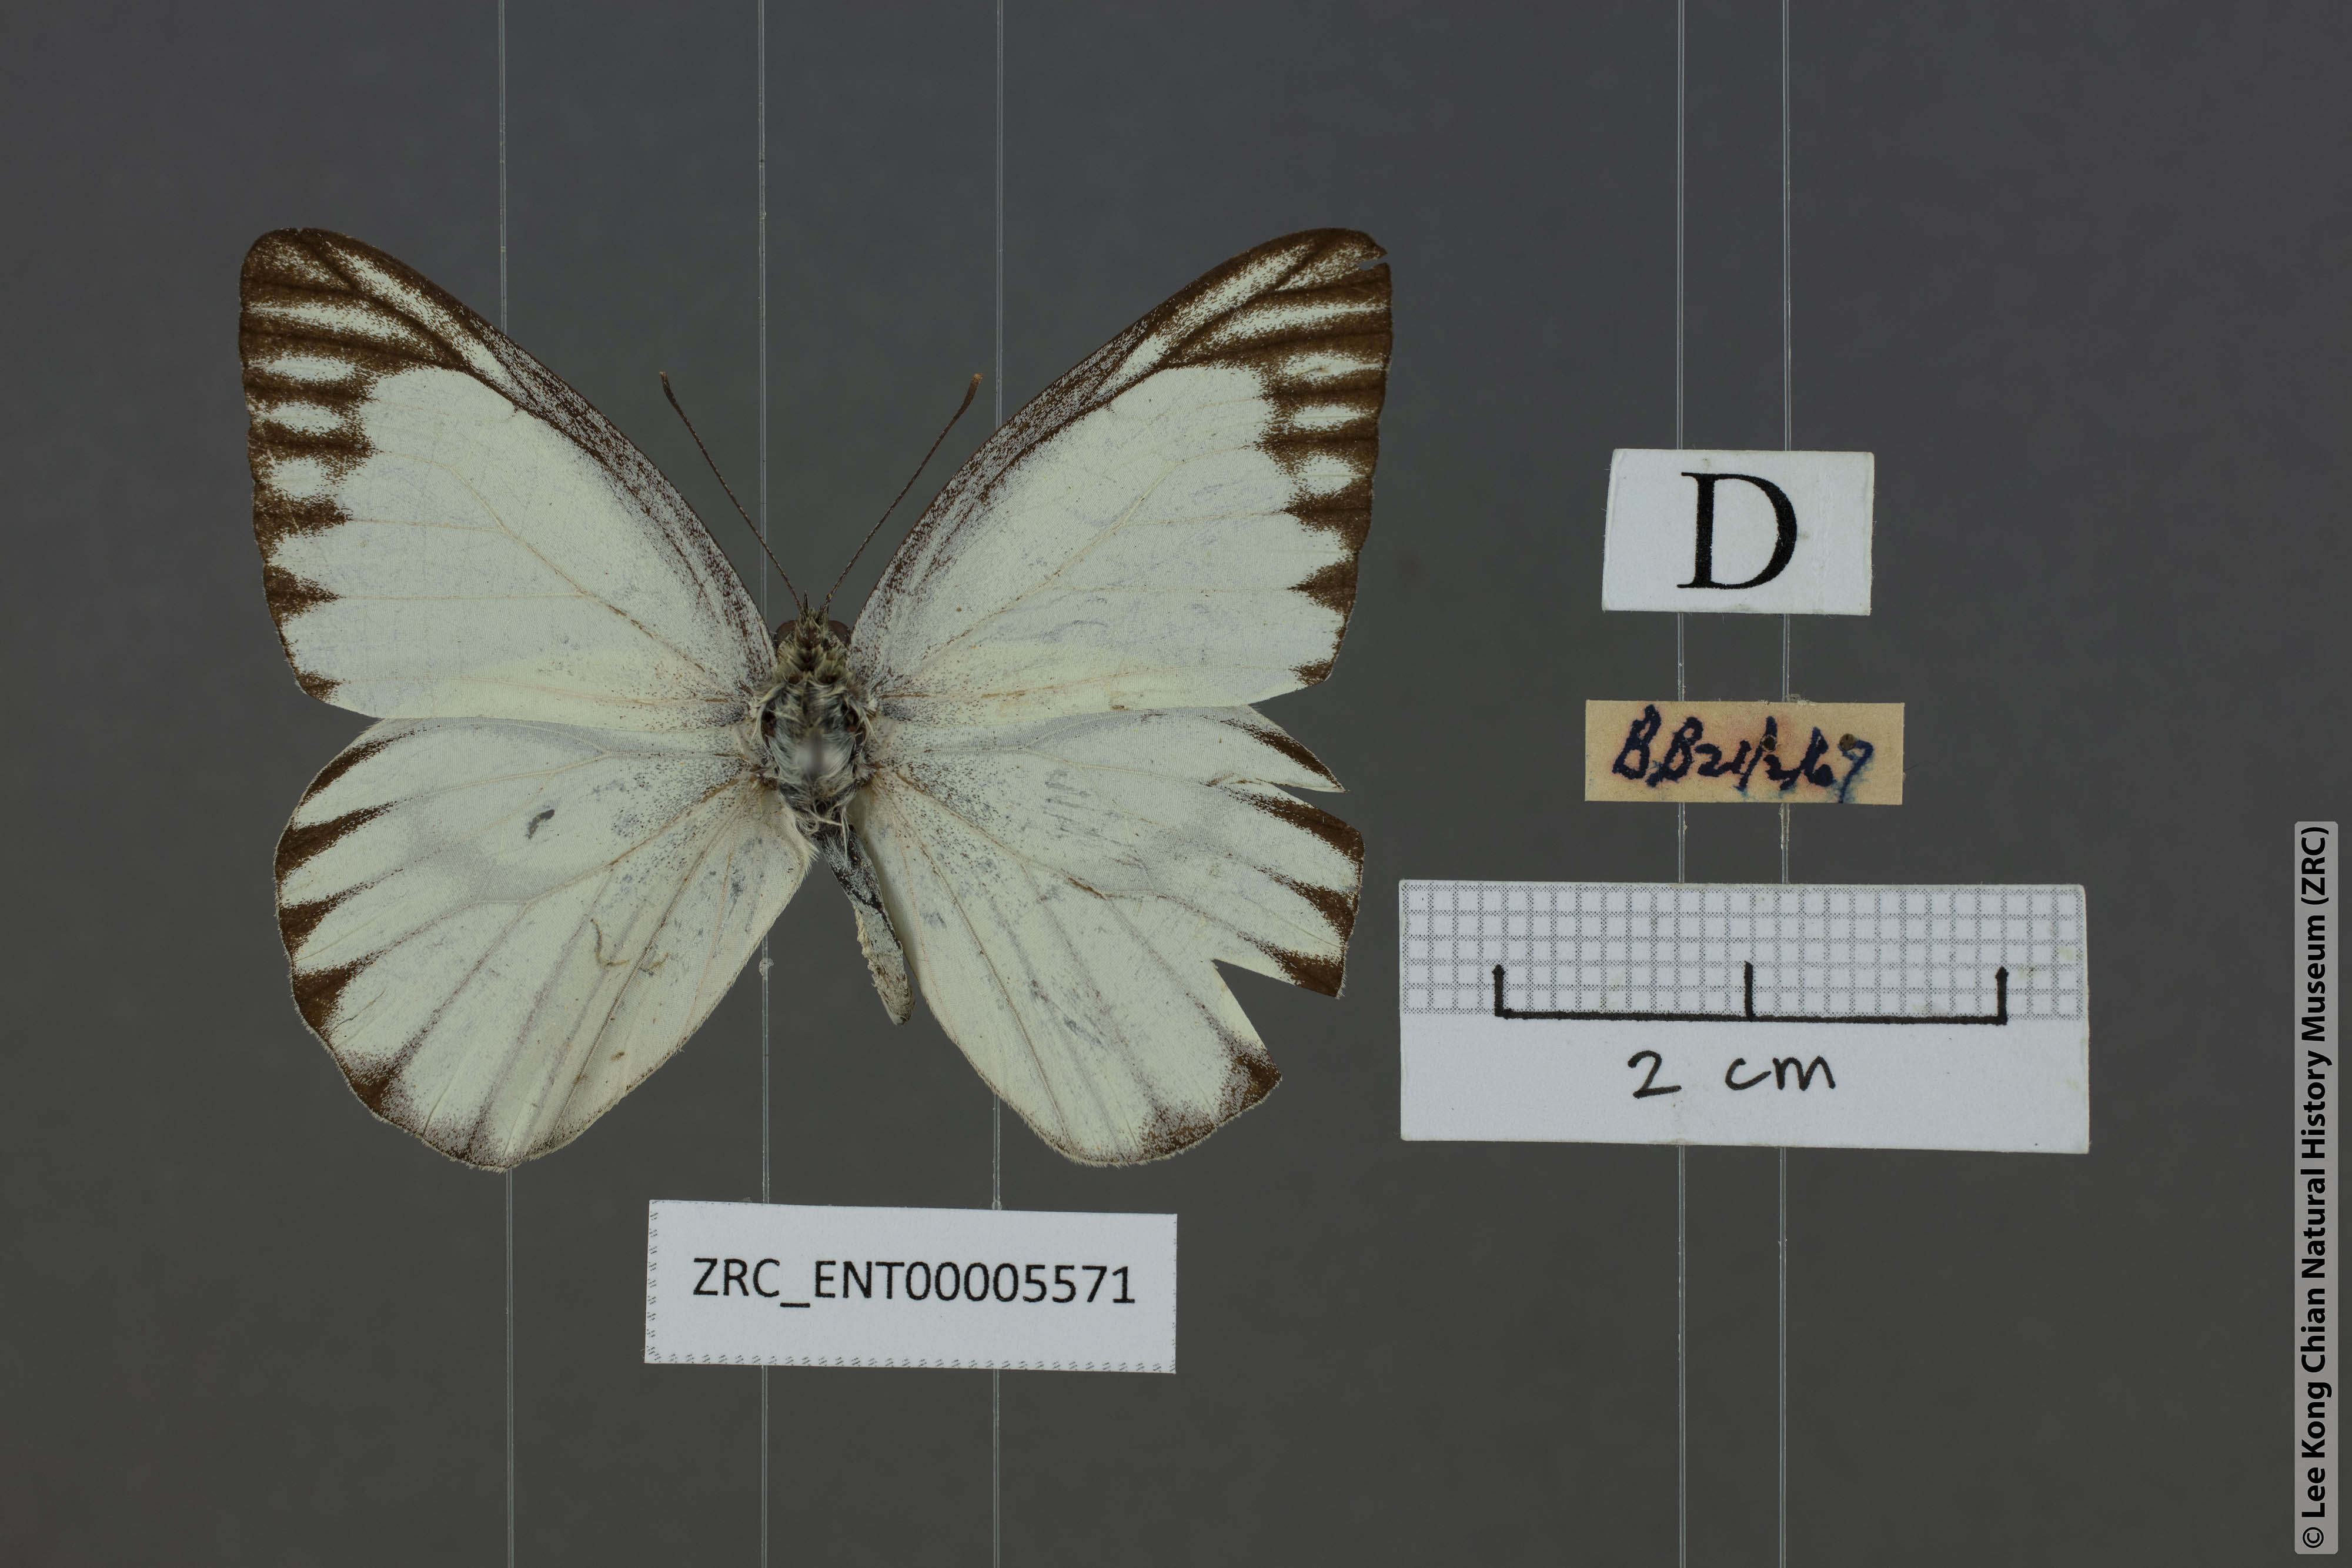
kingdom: Animalia
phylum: Arthropoda
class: Insecta
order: Lepidoptera
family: Pieridae
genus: Appias
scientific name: Appias libythea
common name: Striped albatross
